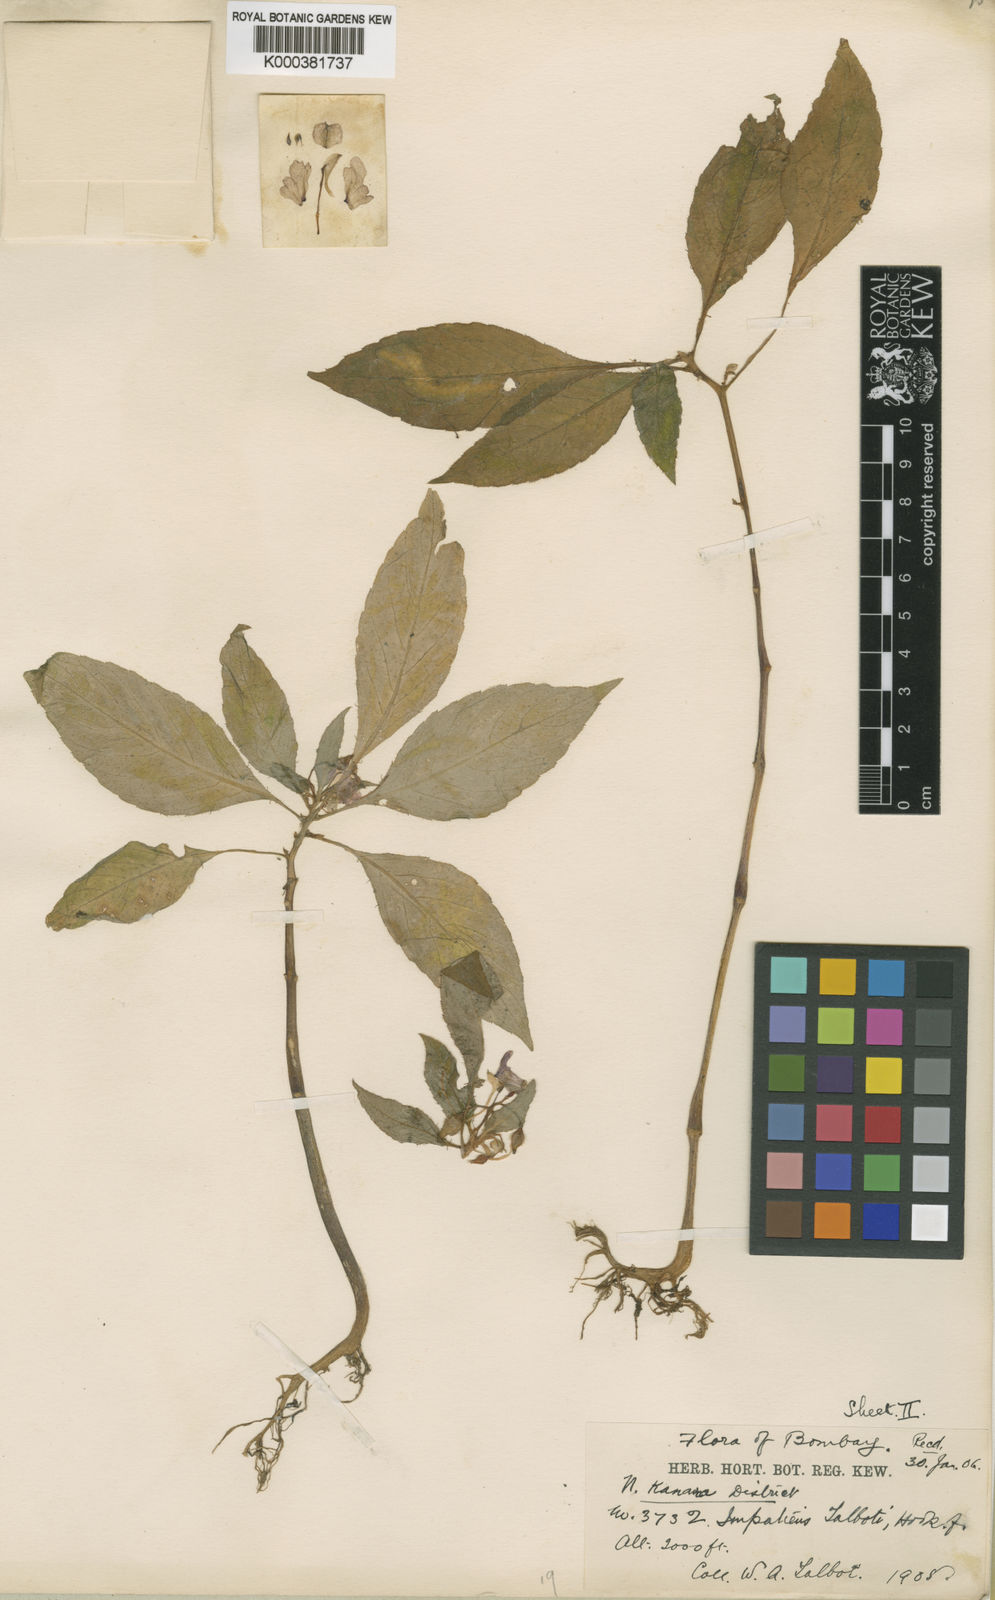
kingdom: Plantae
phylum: Tracheophyta
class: Magnoliopsida
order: Ericales
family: Balsaminaceae
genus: Impatiens
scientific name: Impatiens talbotii
